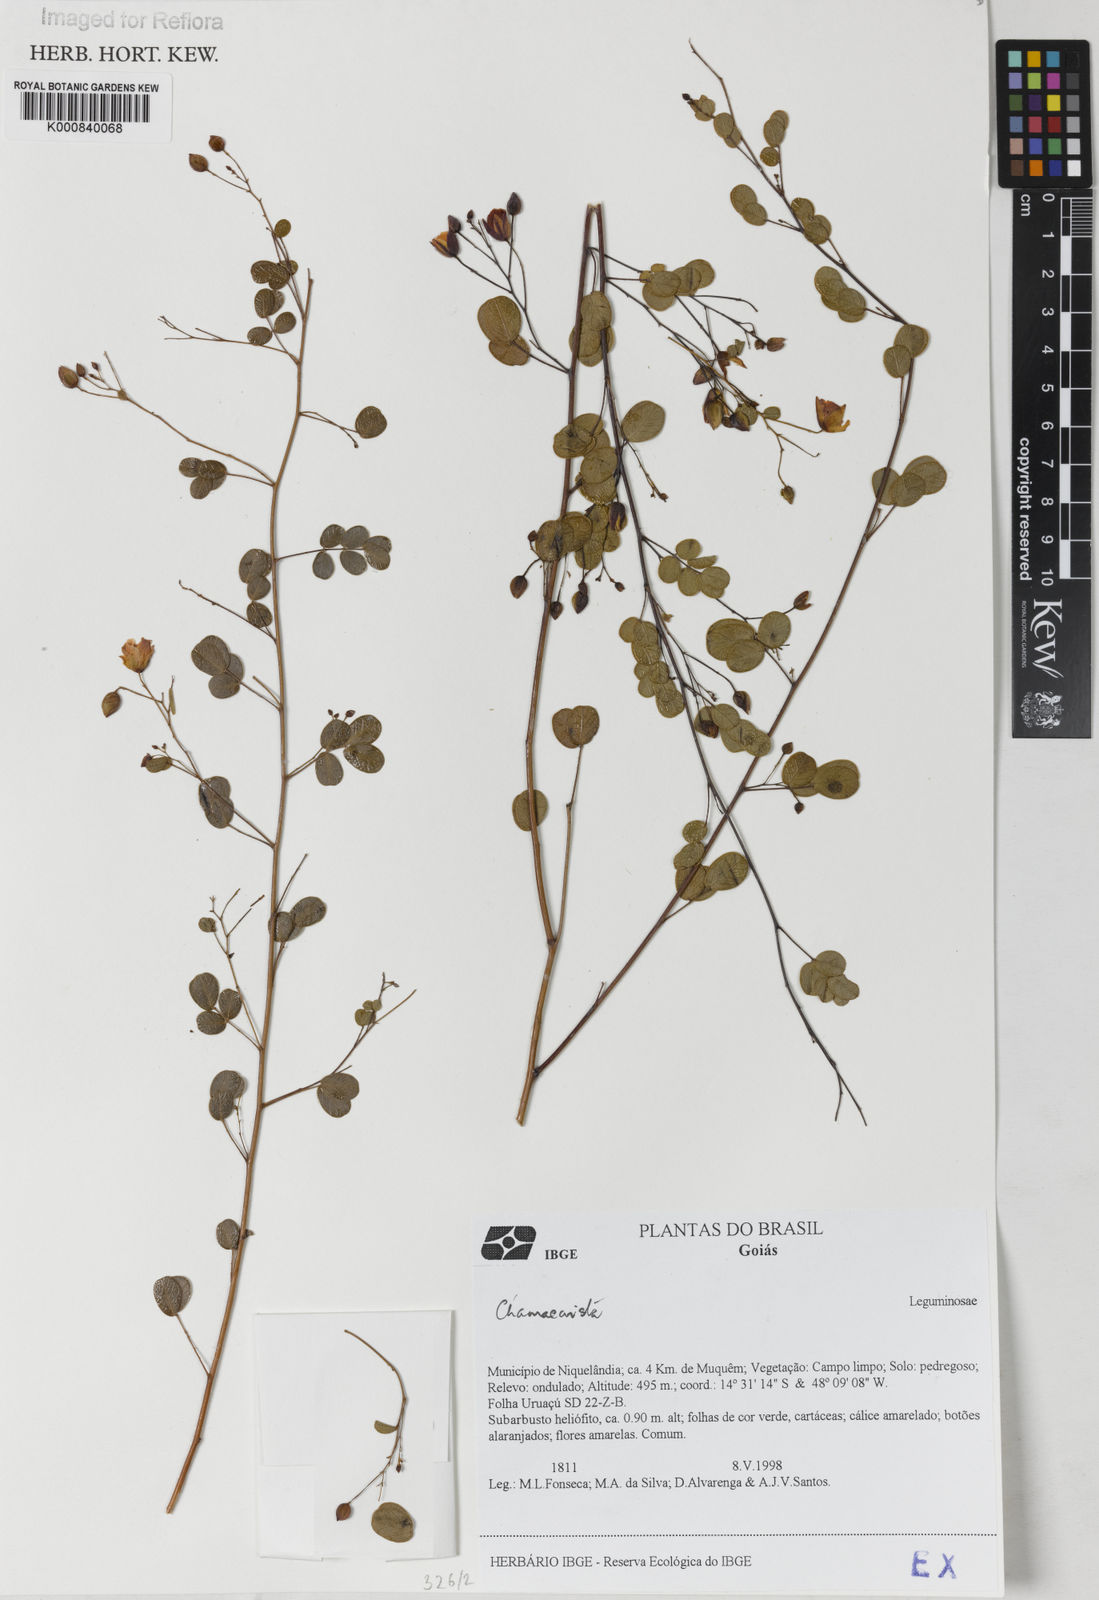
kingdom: Plantae
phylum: Tracheophyta
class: Magnoliopsida
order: Fabales
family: Fabaceae
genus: Chamaecrista
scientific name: Chamaecrista benthamii
